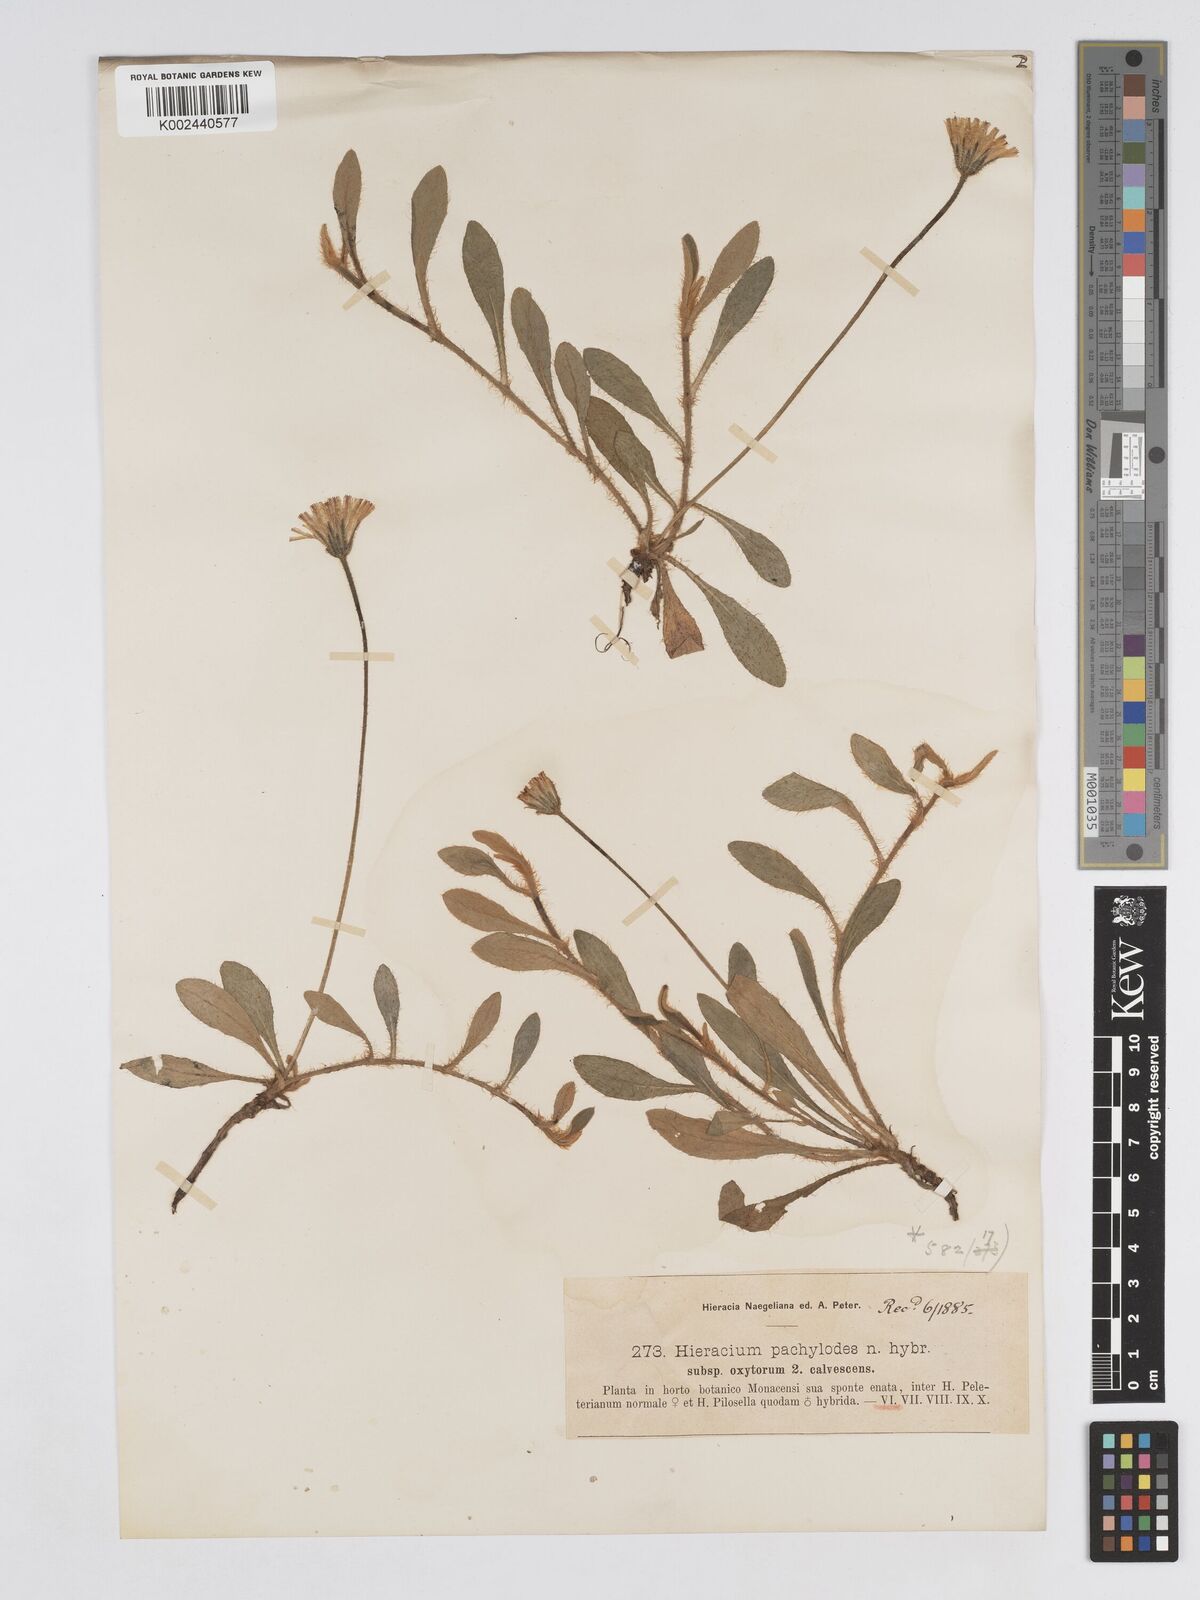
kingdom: Plantae
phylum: Tracheophyta
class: Magnoliopsida
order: Asterales
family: Asteraceae
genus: Pilosella
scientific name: Pilosella longisquama
